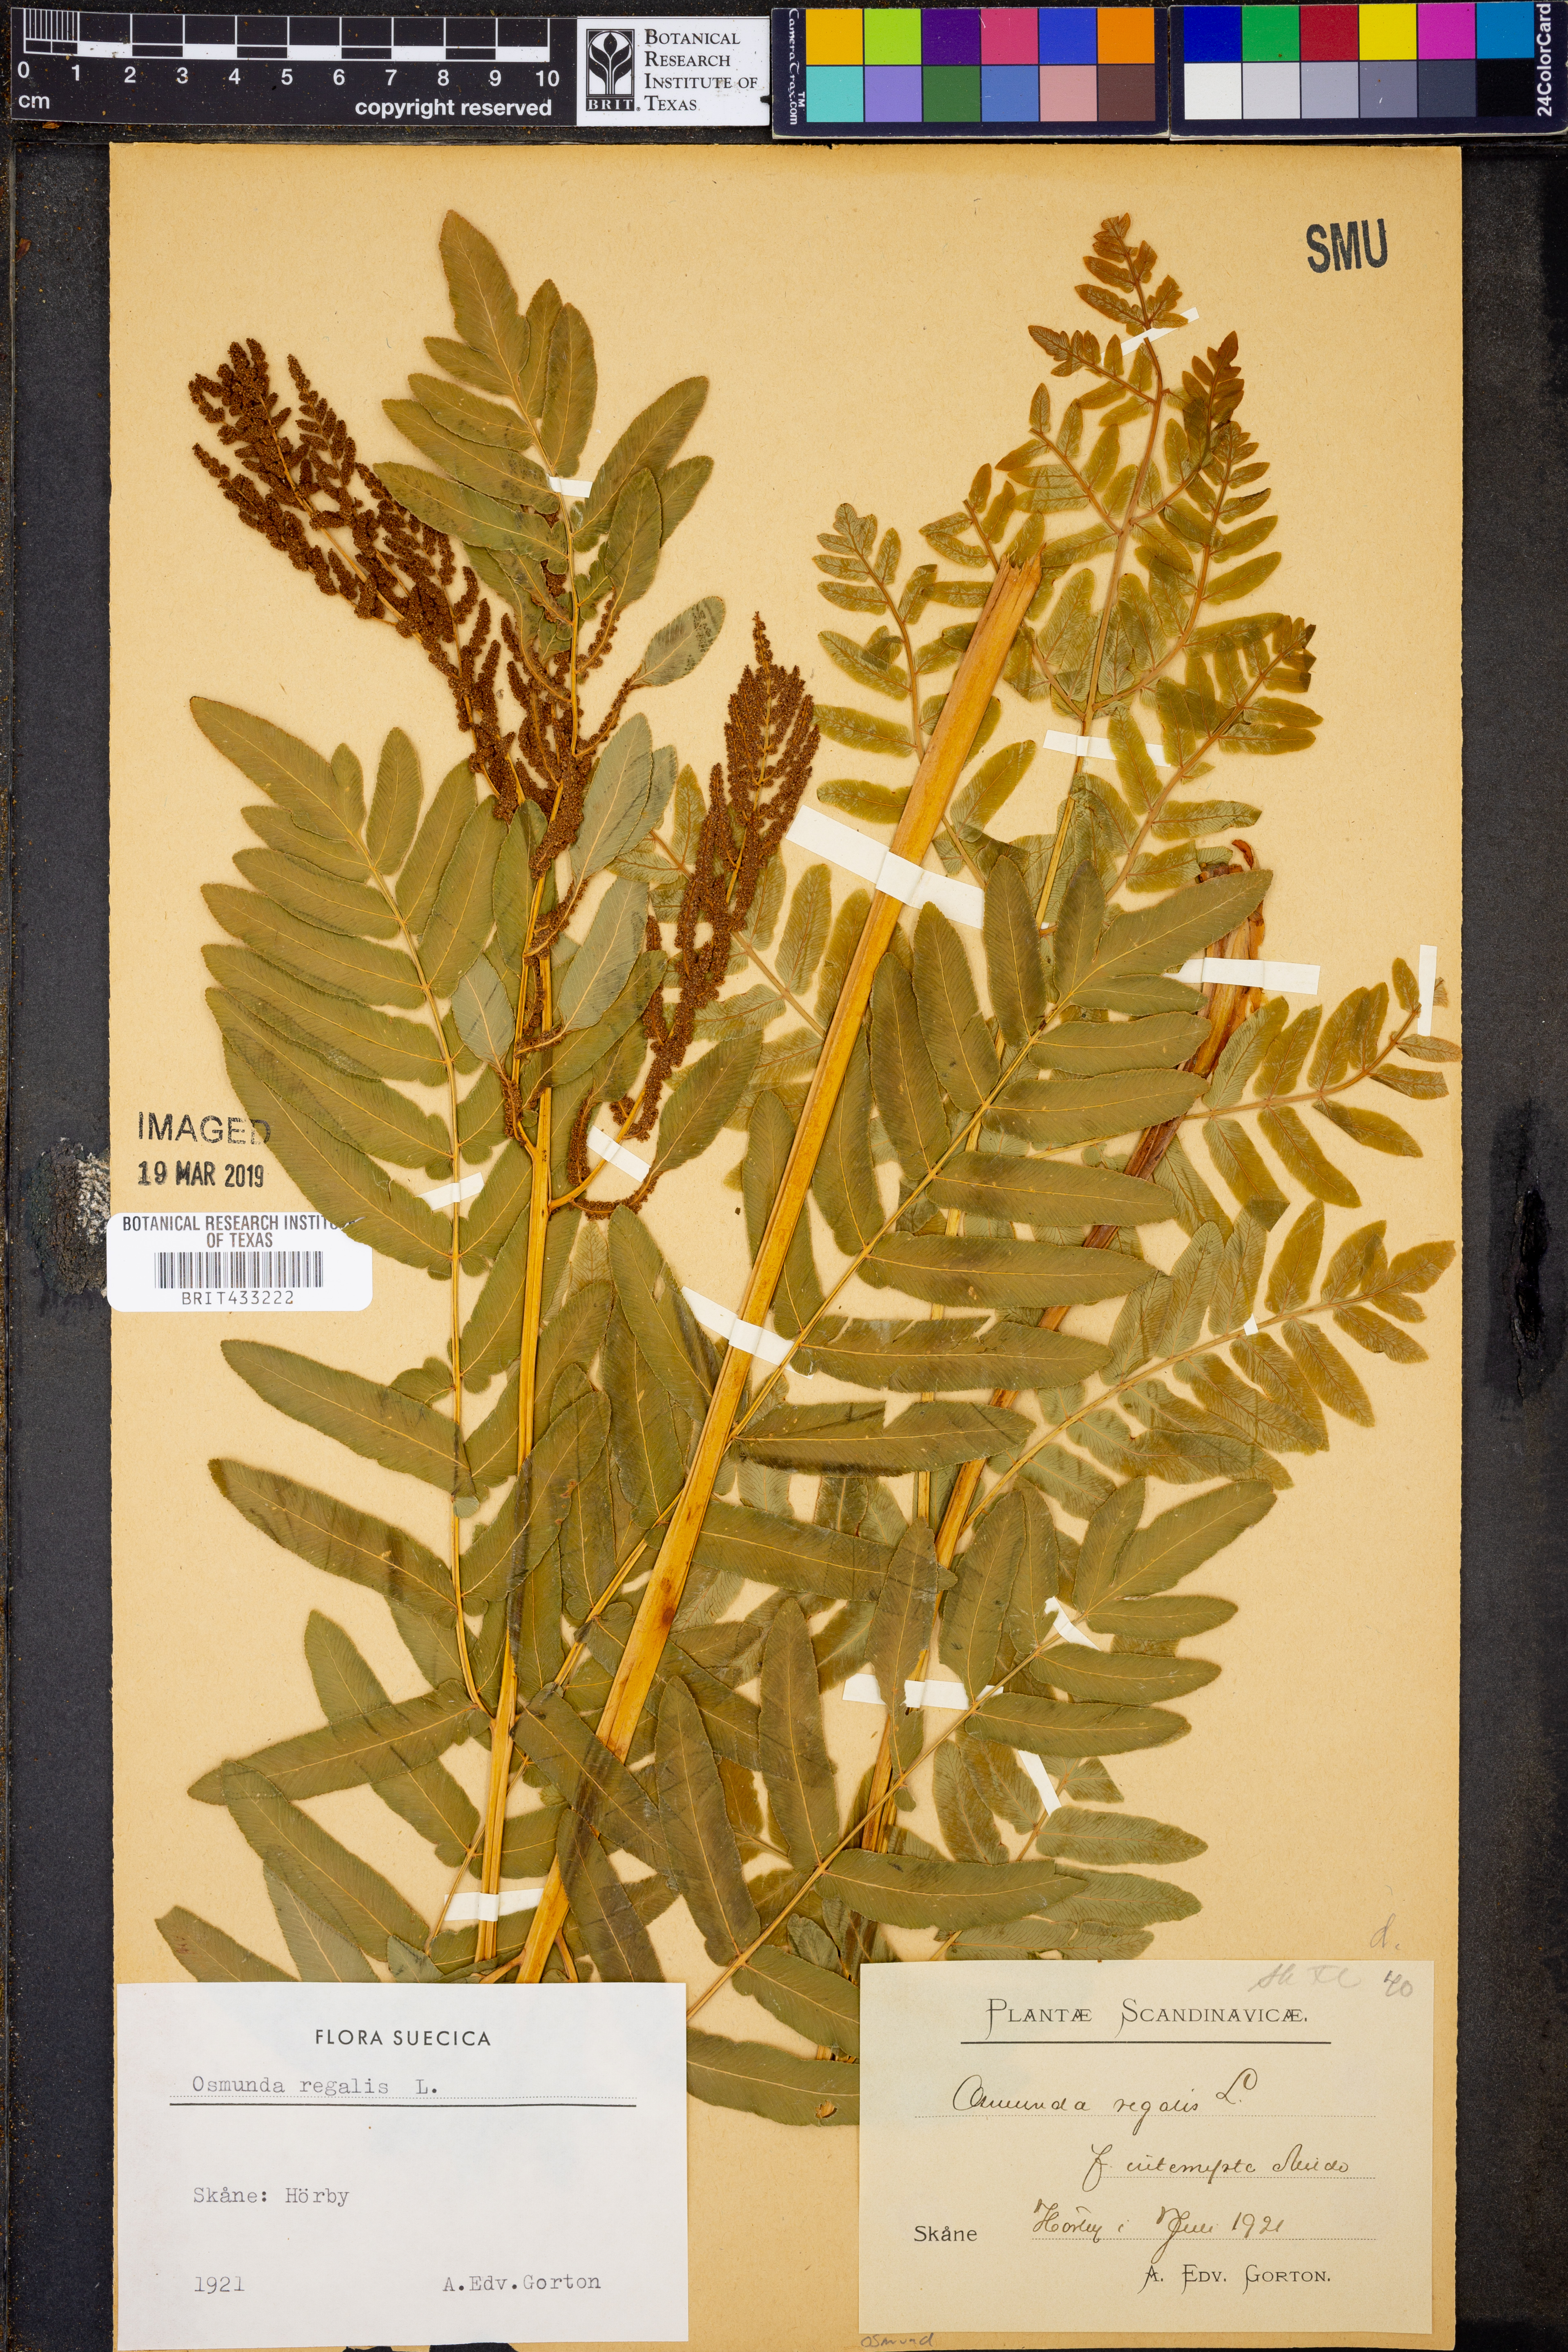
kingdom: Plantae
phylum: Tracheophyta
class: Polypodiopsida
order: Osmundales
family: Osmundaceae
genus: Osmunda
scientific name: Osmunda regalis
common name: Royal fern
